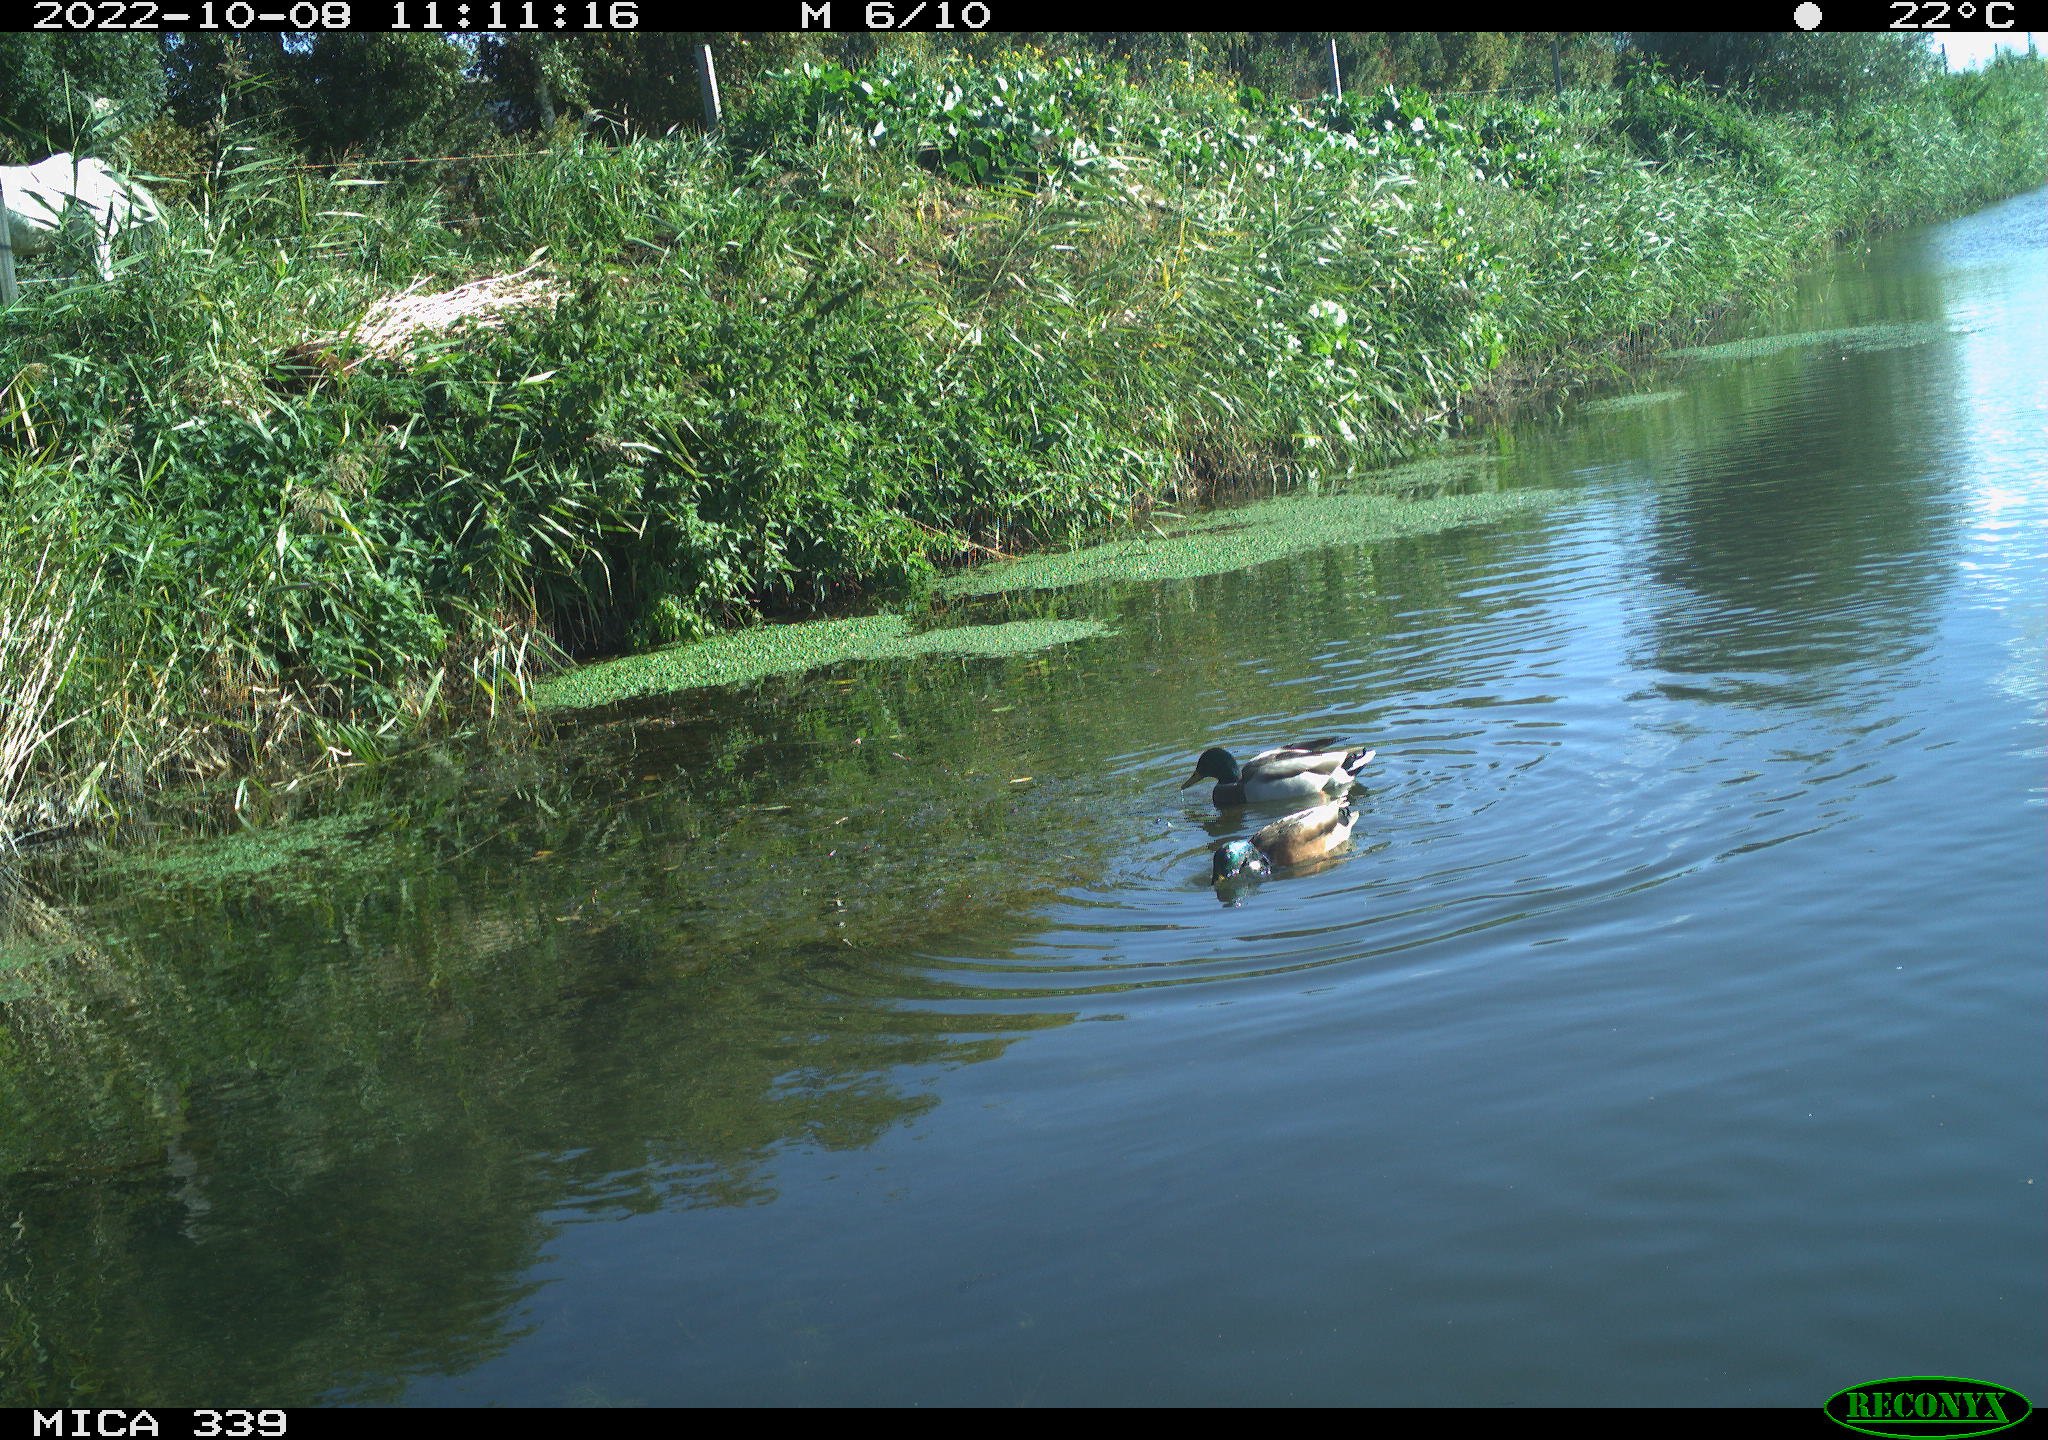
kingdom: Animalia
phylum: Chordata
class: Aves
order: Anseriformes
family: Anatidae
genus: Anas
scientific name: Anas platyrhynchos
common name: Mallard
